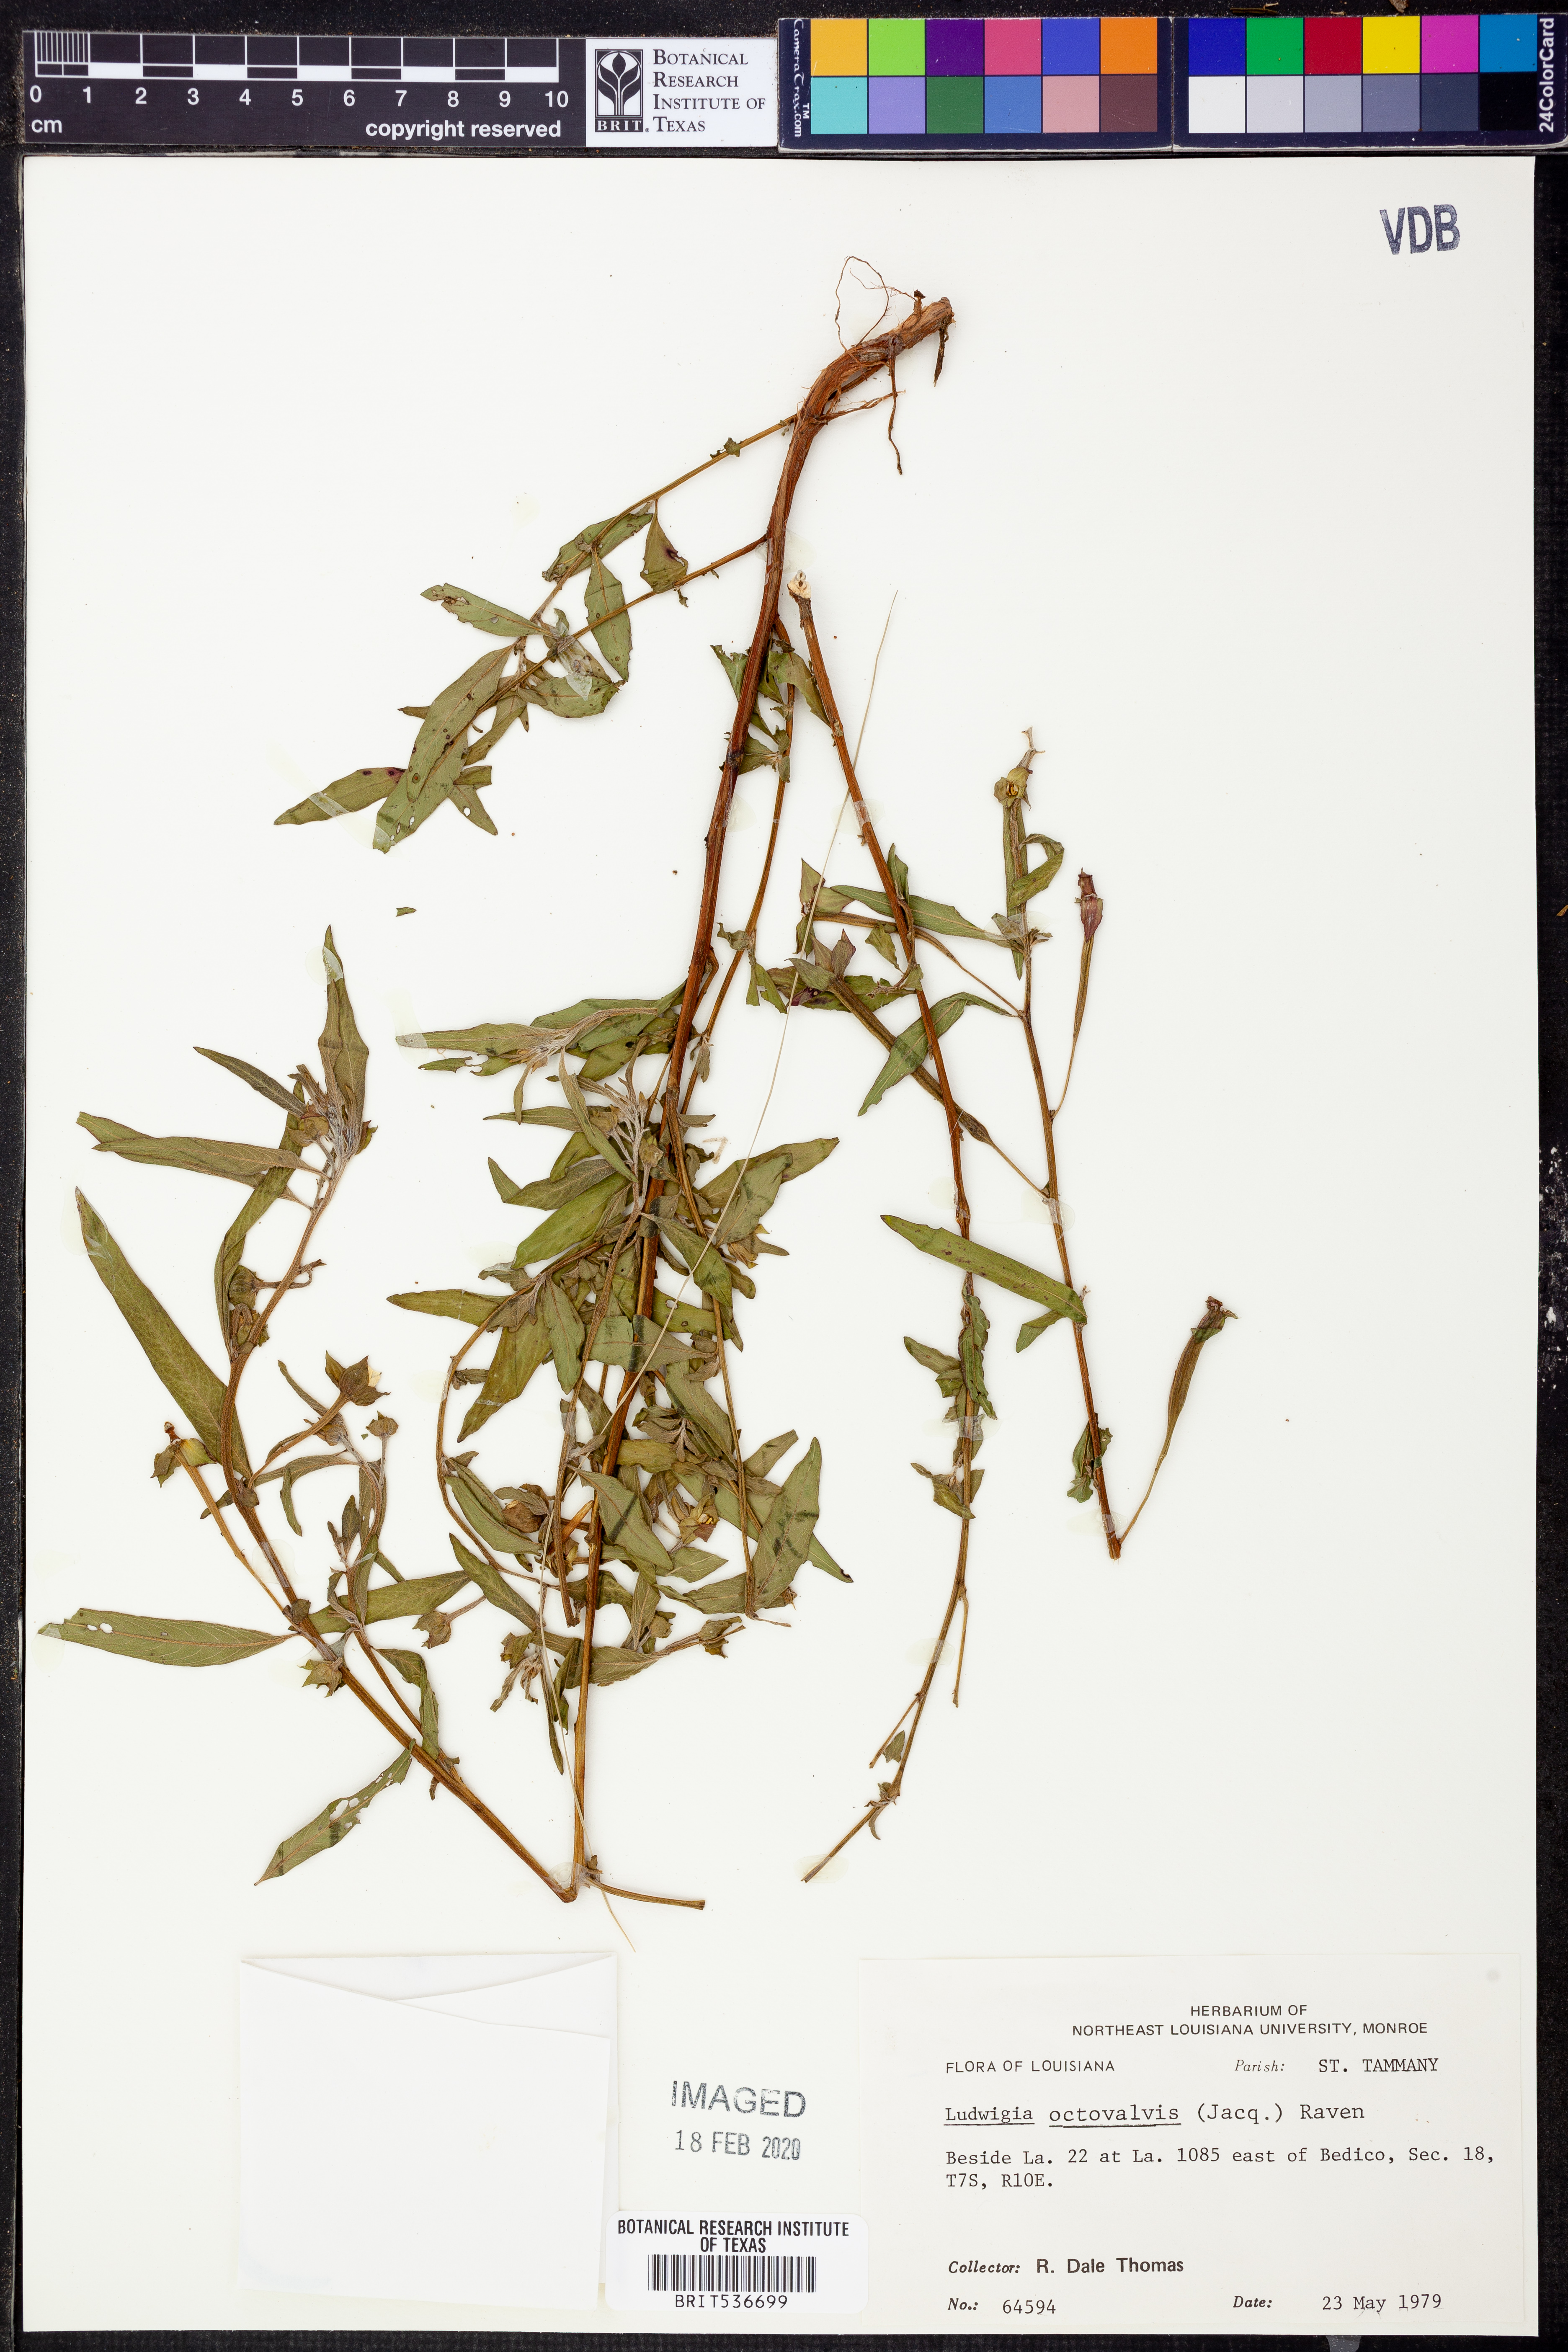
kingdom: Plantae
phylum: Tracheophyta
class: Magnoliopsida
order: Myrtales
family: Onagraceae
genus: Ludwigia
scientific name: Ludwigia octovalvis
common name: Water-primrose
